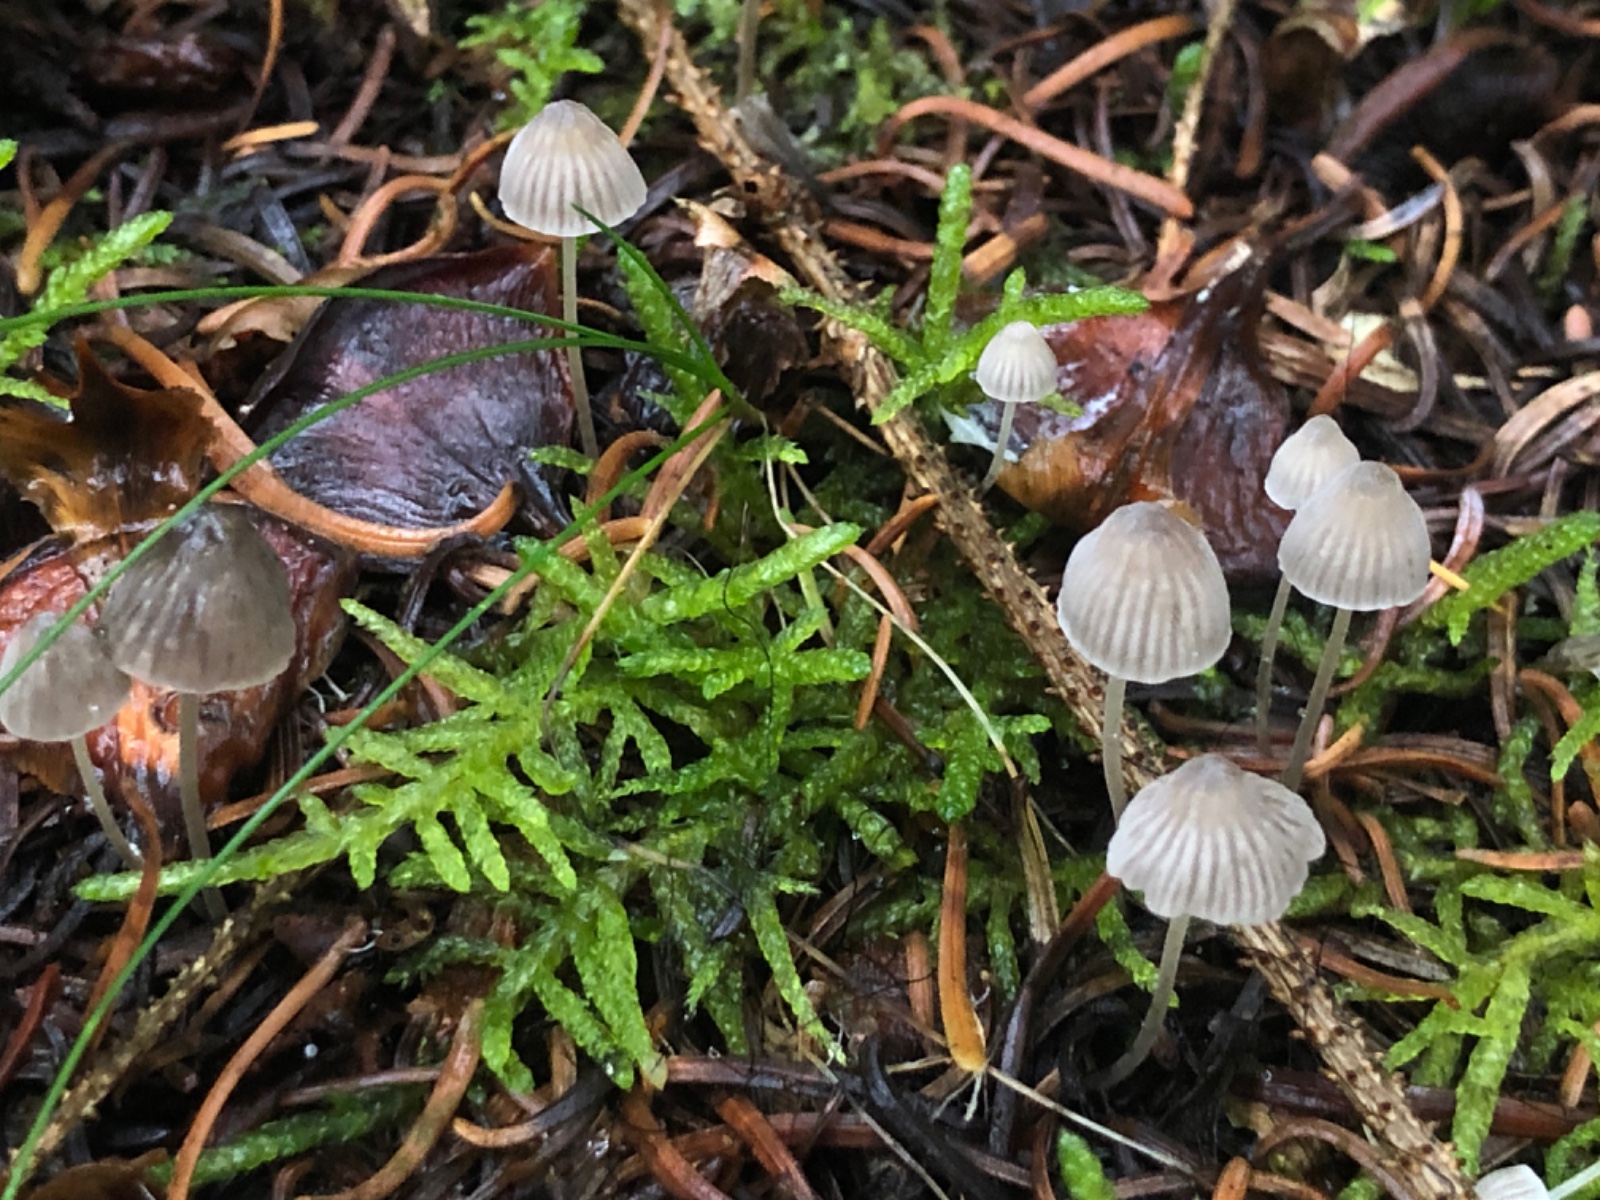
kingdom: Fungi
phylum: Basidiomycota
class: Agaricomycetes
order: Agaricales
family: Mycenaceae
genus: Mycena
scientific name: Mycena cinerella
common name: mel-huesvamp
